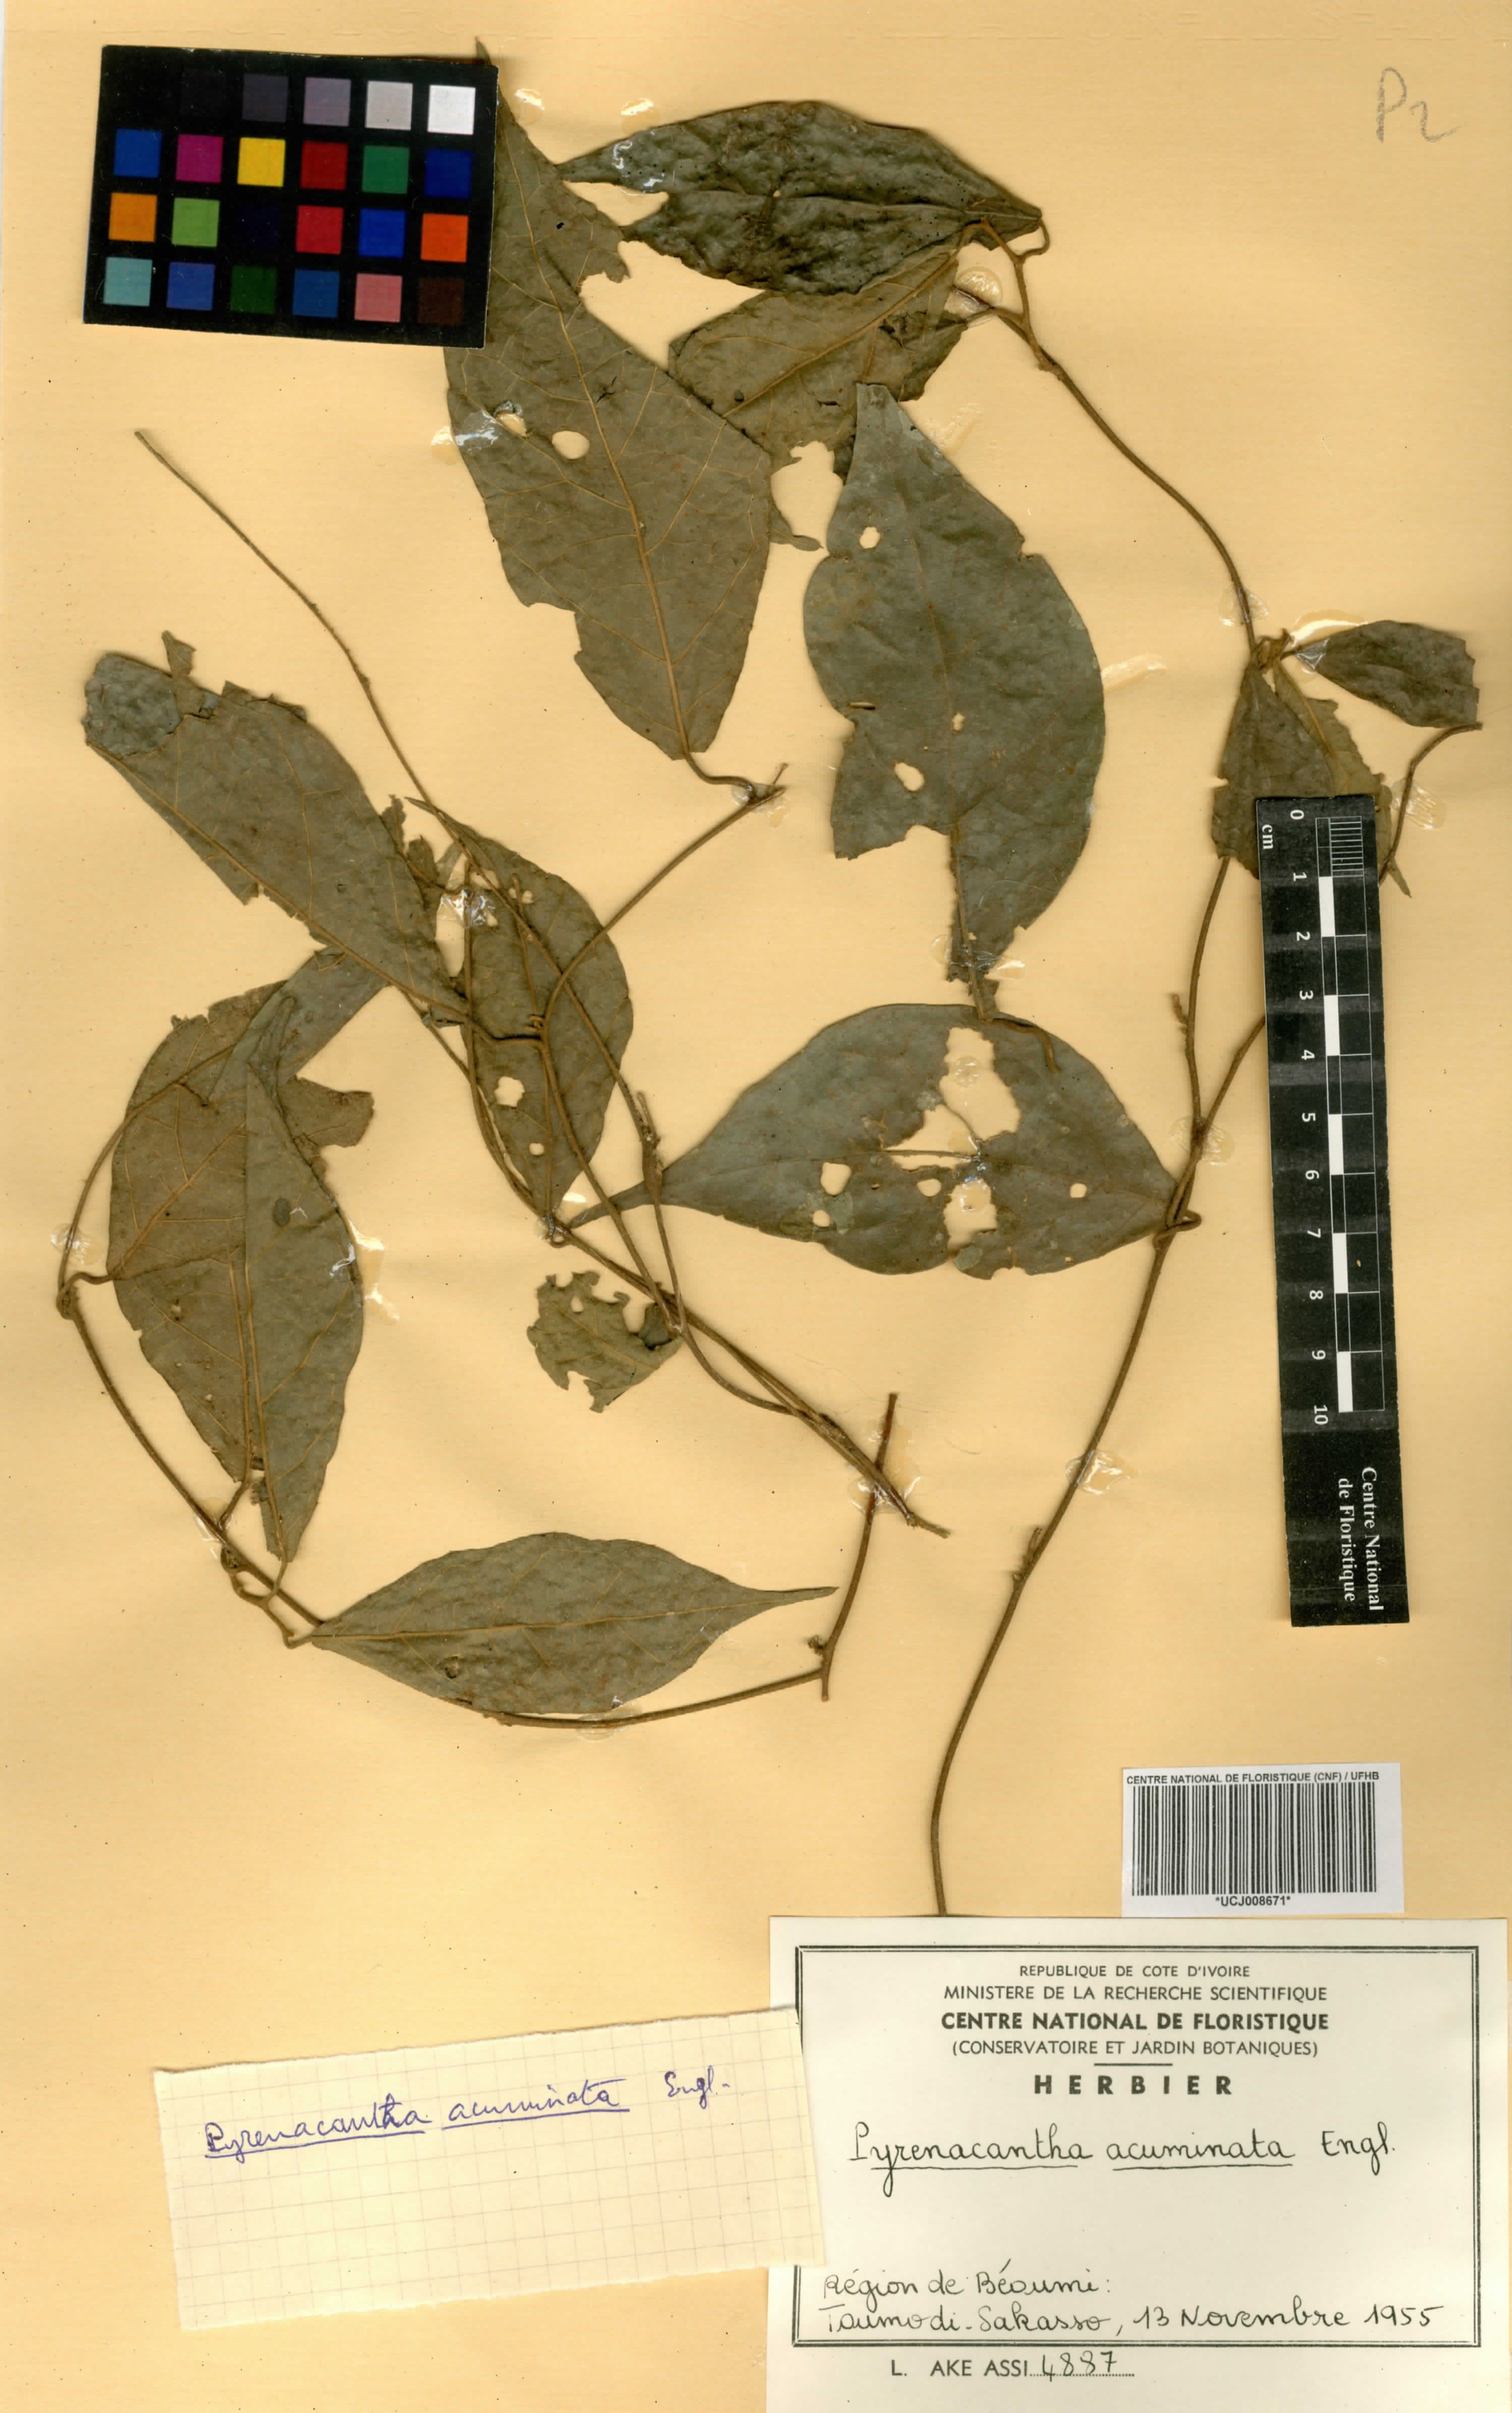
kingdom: Plantae
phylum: Tracheophyta
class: Magnoliopsida
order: Icacinales
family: Icacinaceae
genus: Pyrenacantha
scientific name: Pyrenacantha acuminata
